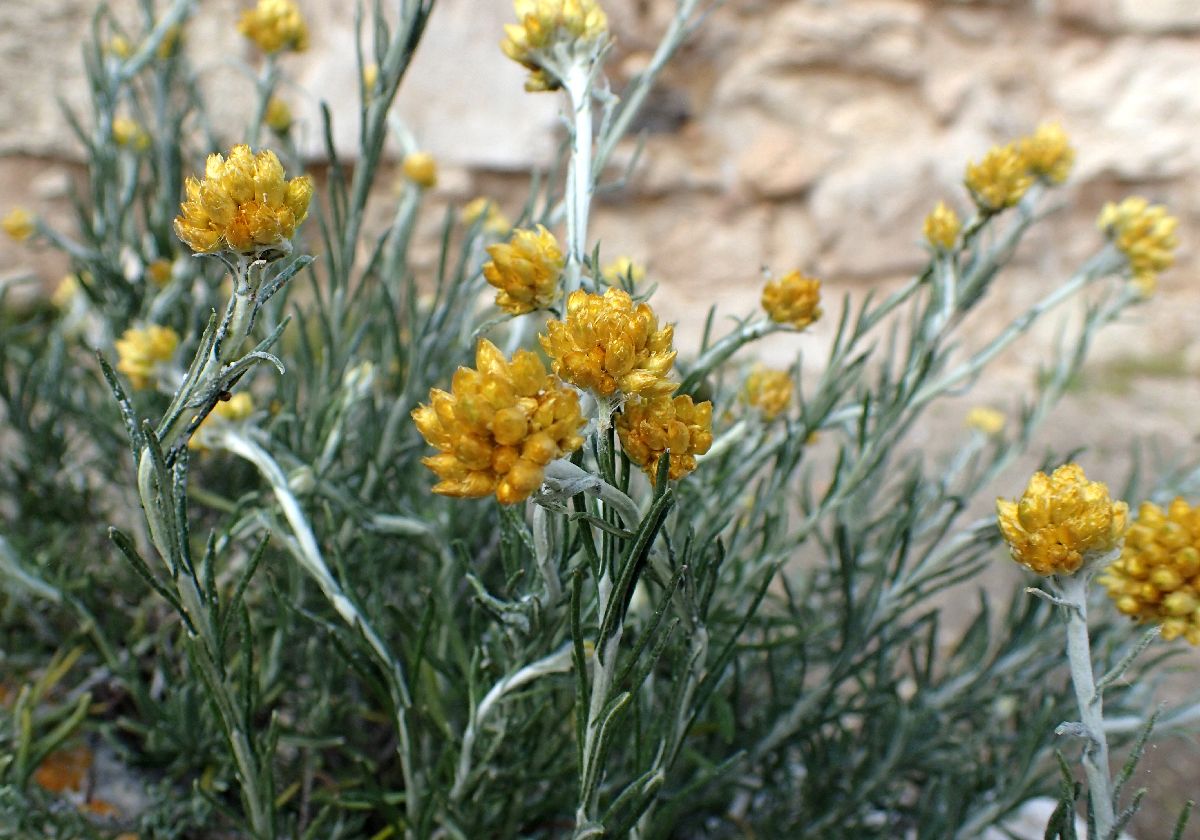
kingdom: Plantae
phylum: Tracheophyta
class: Magnoliopsida
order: Asterales
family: Asteraceae
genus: Helichrysum
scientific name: Helichrysum stoechas
